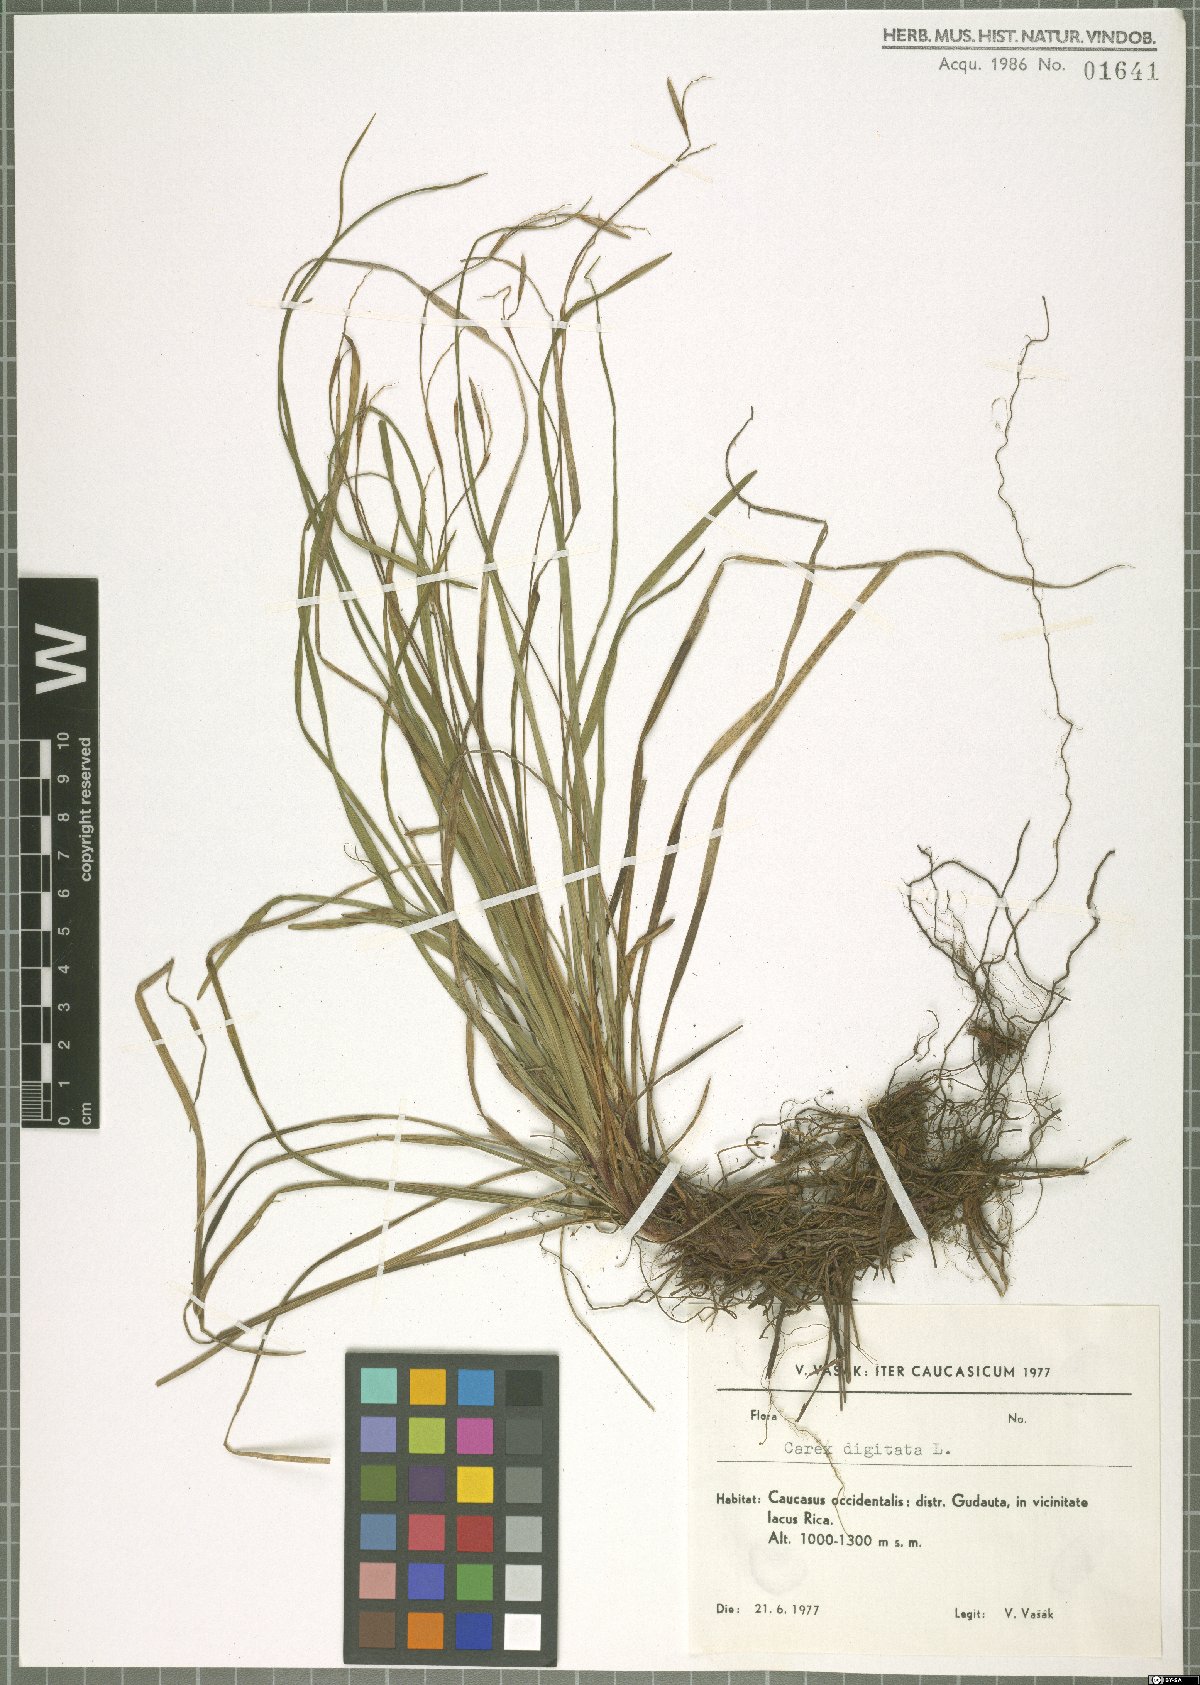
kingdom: Plantae
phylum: Tracheophyta
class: Liliopsida
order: Poales
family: Cyperaceae
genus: Carex
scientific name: Carex digitata
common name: Fingered sedge
